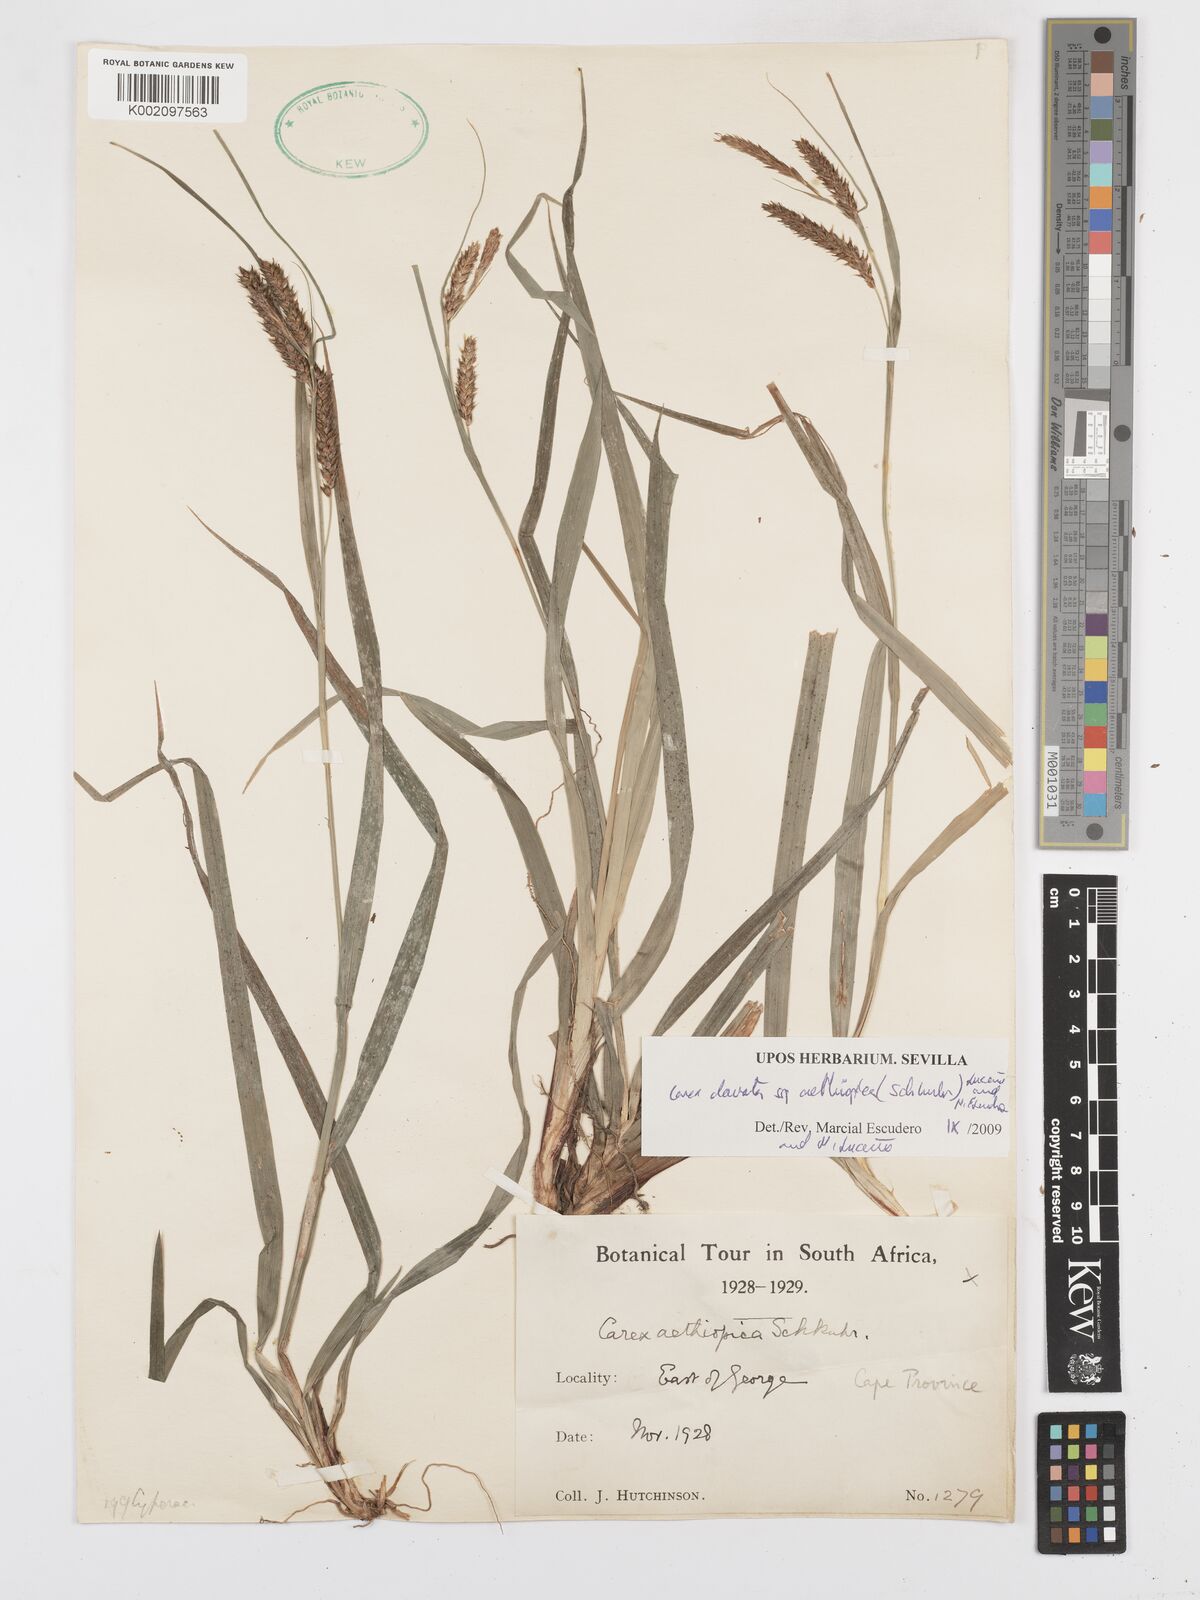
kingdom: Plantae
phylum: Tracheophyta
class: Liliopsida
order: Poales
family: Cyperaceae
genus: Carex
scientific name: Carex aethiopica
